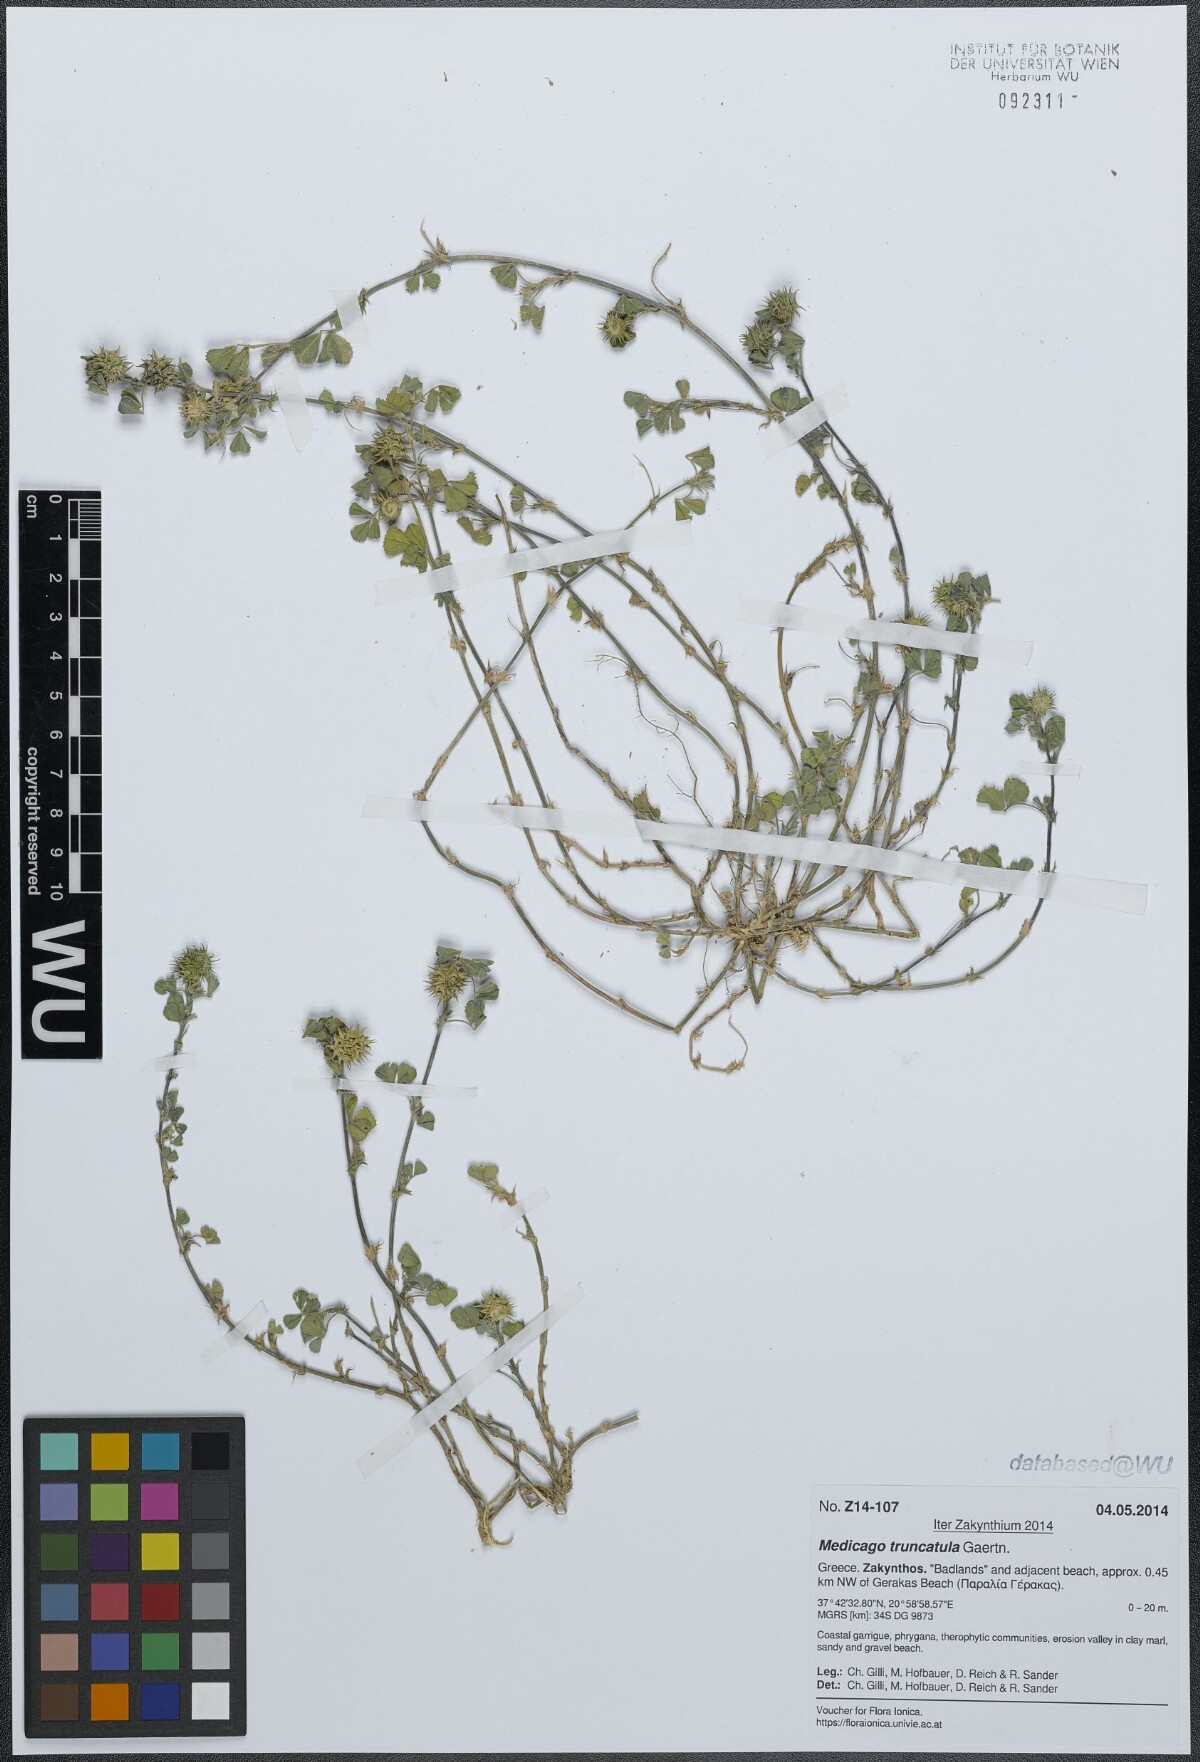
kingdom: Plantae
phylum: Tracheophyta
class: Magnoliopsida
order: Fabales
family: Fabaceae
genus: Medicago
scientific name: Medicago truncatula
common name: Strong-spined medick
